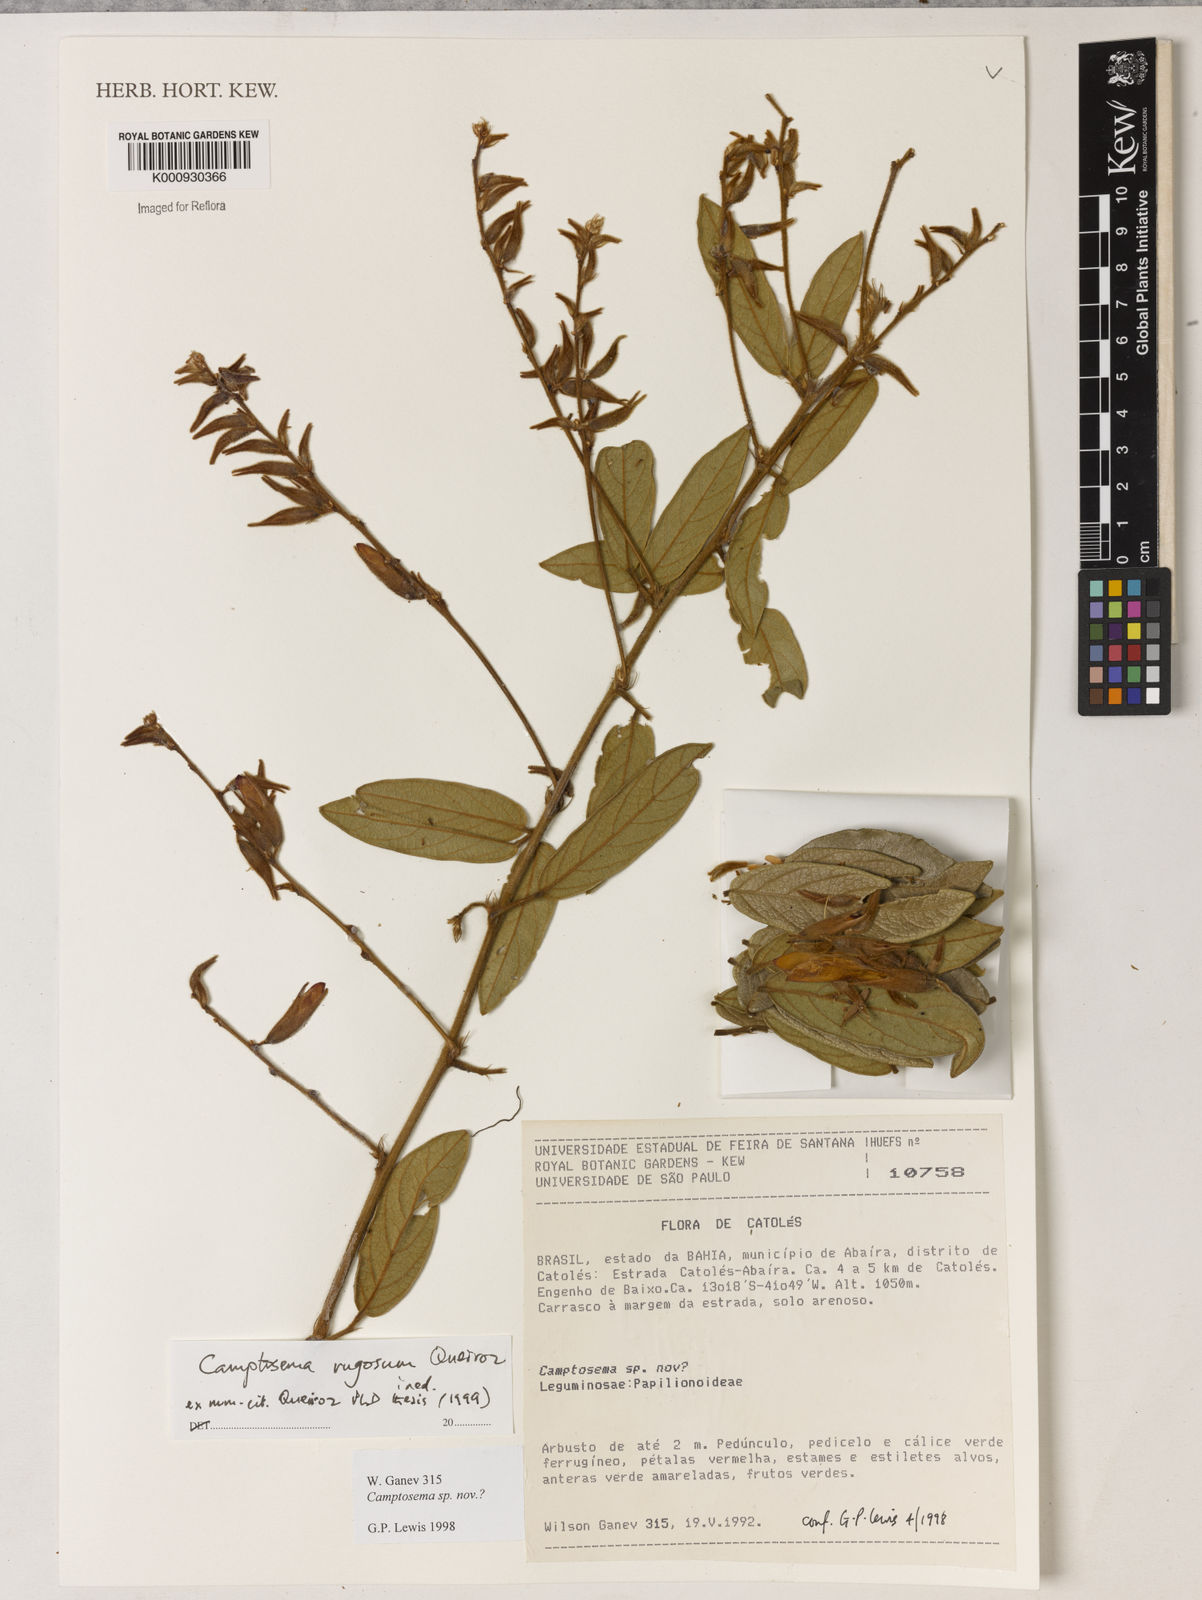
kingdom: Plantae
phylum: Tracheophyta
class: Magnoliopsida
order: Fabales
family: Fabaceae
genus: Camptosema
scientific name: Camptosema
